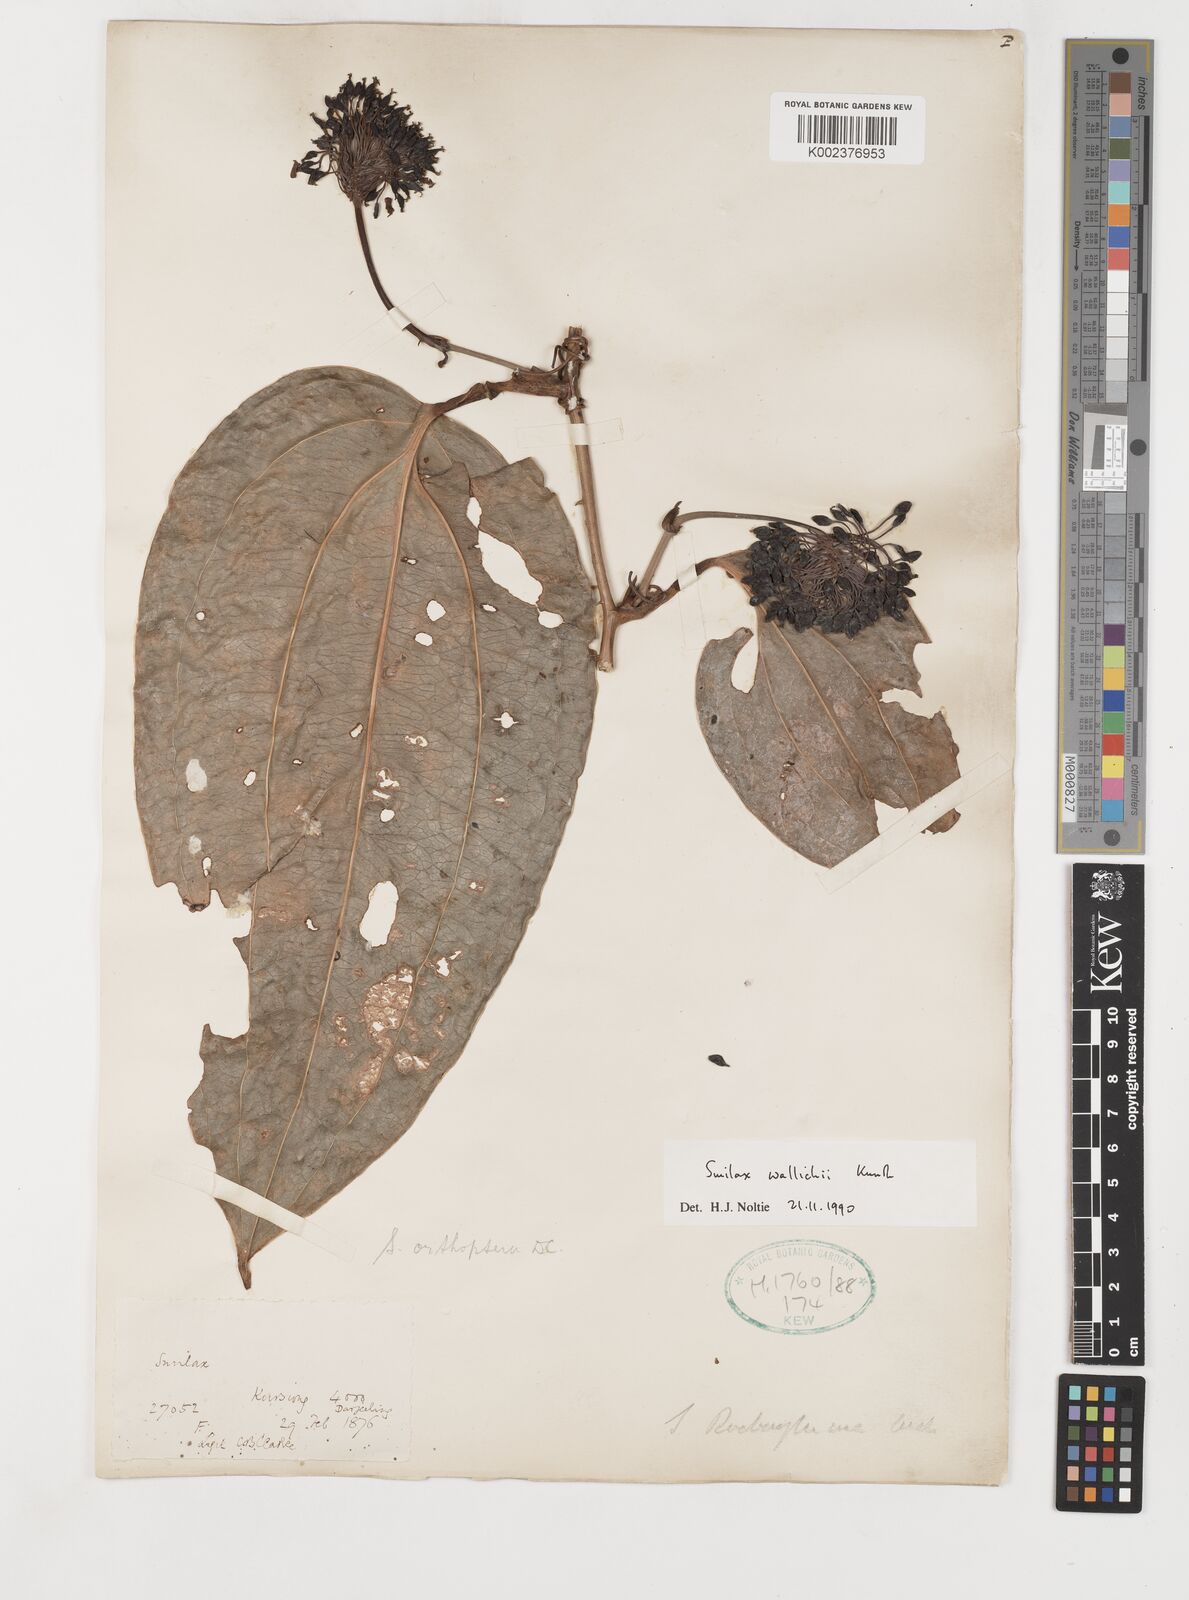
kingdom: Plantae
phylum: Tracheophyta
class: Liliopsida
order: Liliales
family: Smilacaceae
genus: Smilax
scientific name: Smilax wallichii
